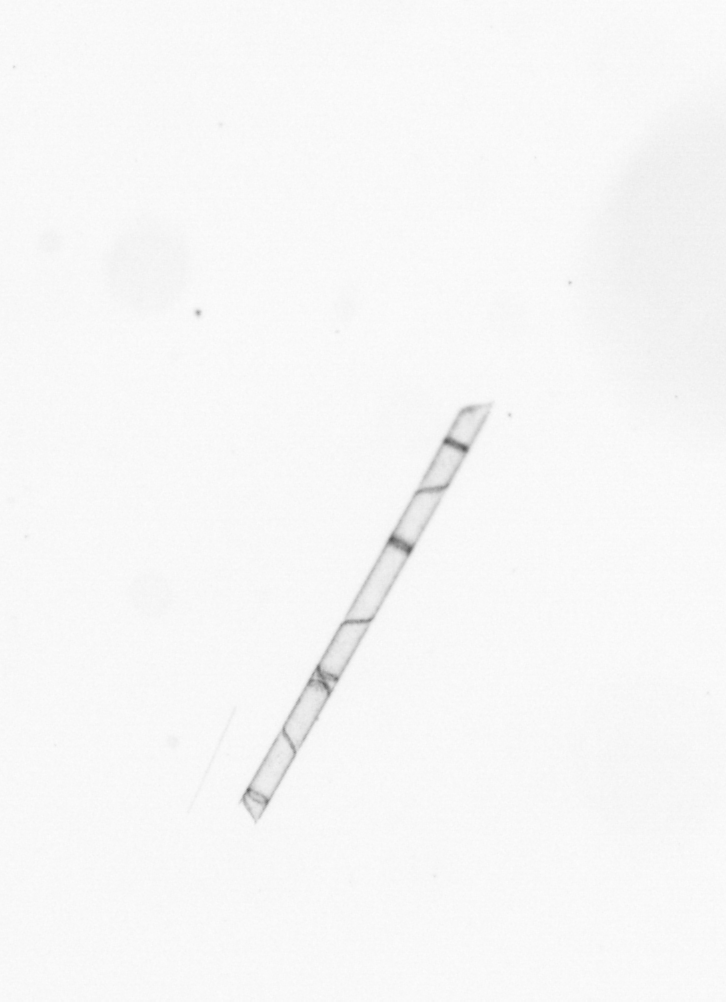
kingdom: Chromista
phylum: Ochrophyta
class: Bacillariophyceae
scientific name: Bacillariophyceae
